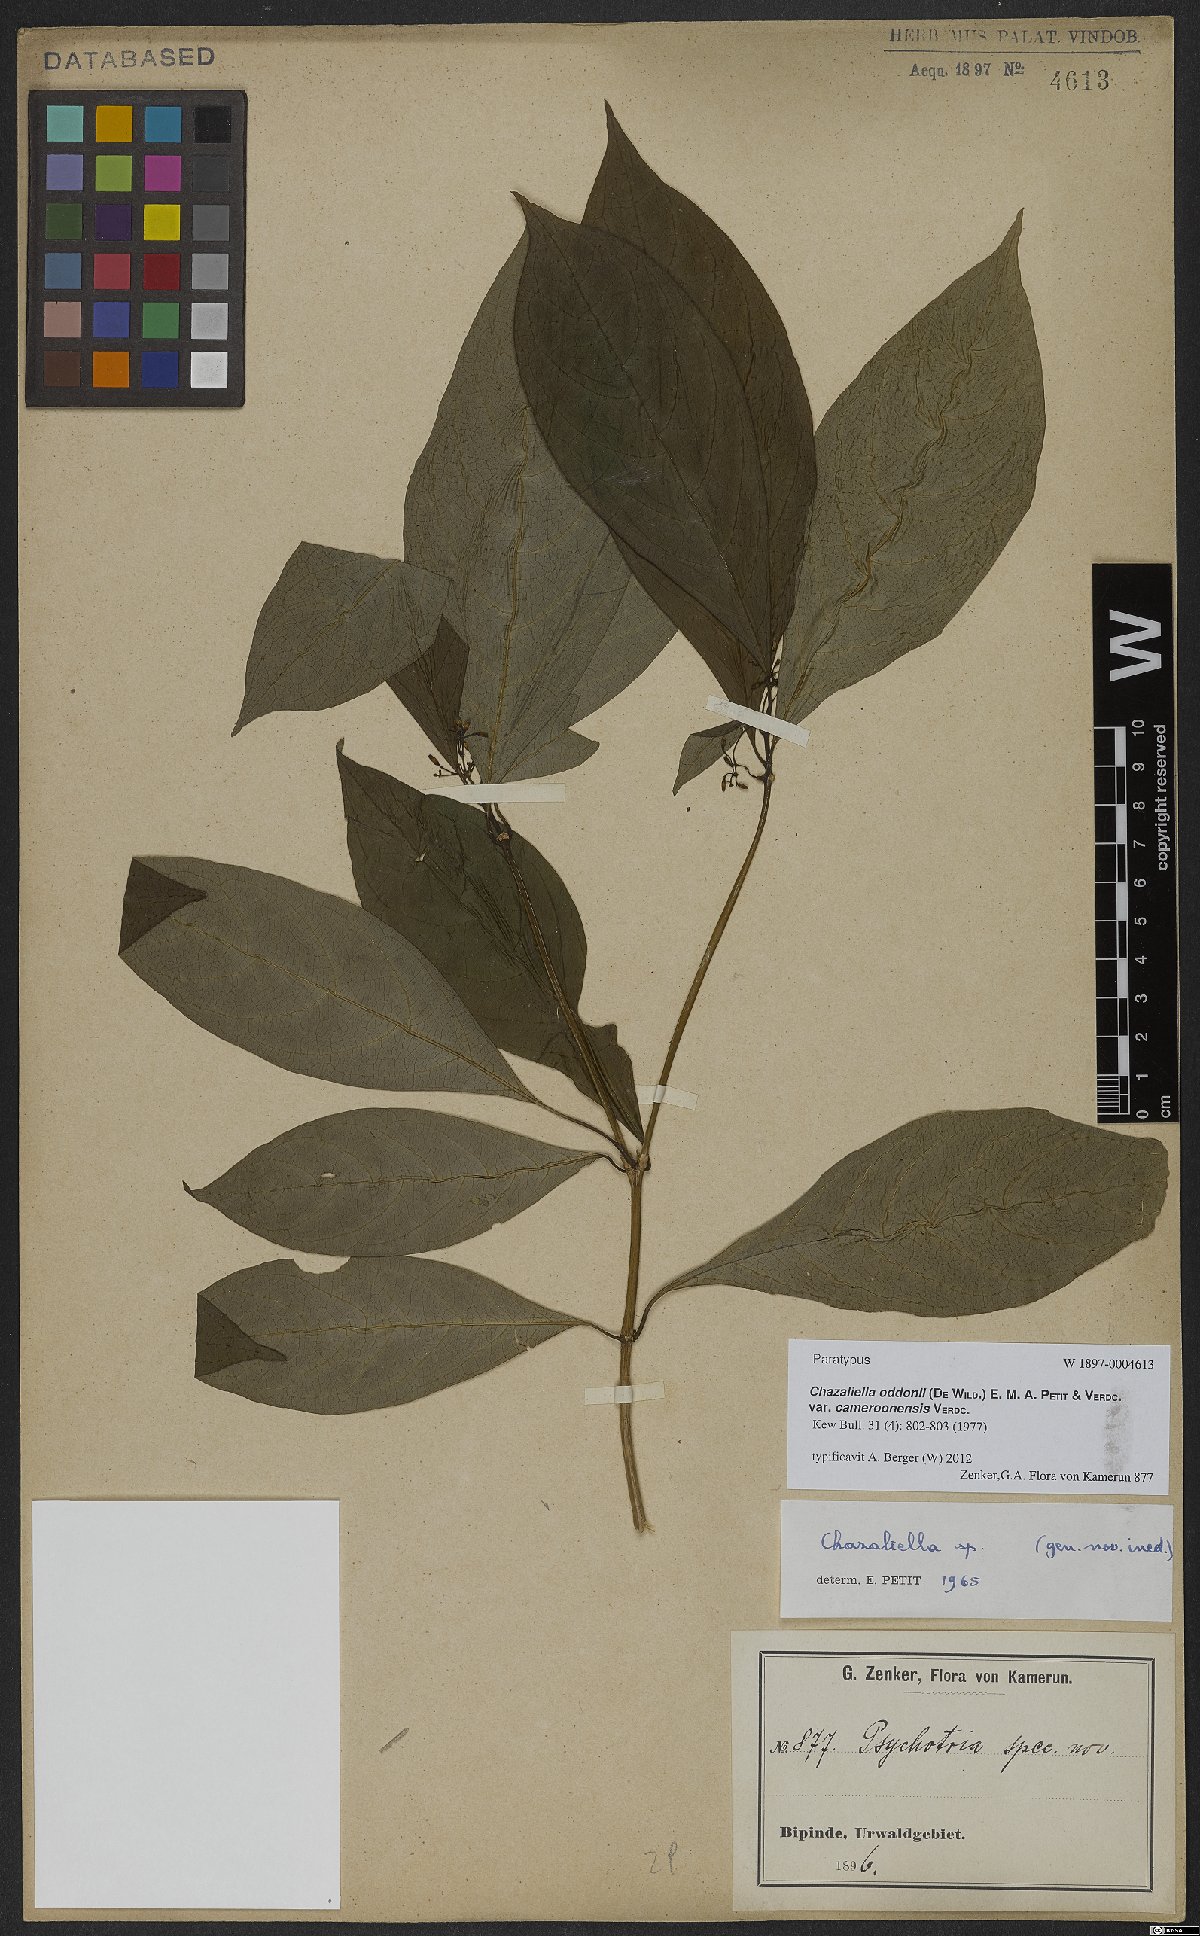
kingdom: Plantae
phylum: Tracheophyta
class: Magnoliopsida
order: Gentianales
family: Rubiaceae
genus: Eumachia
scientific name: Eumachia oddonii
